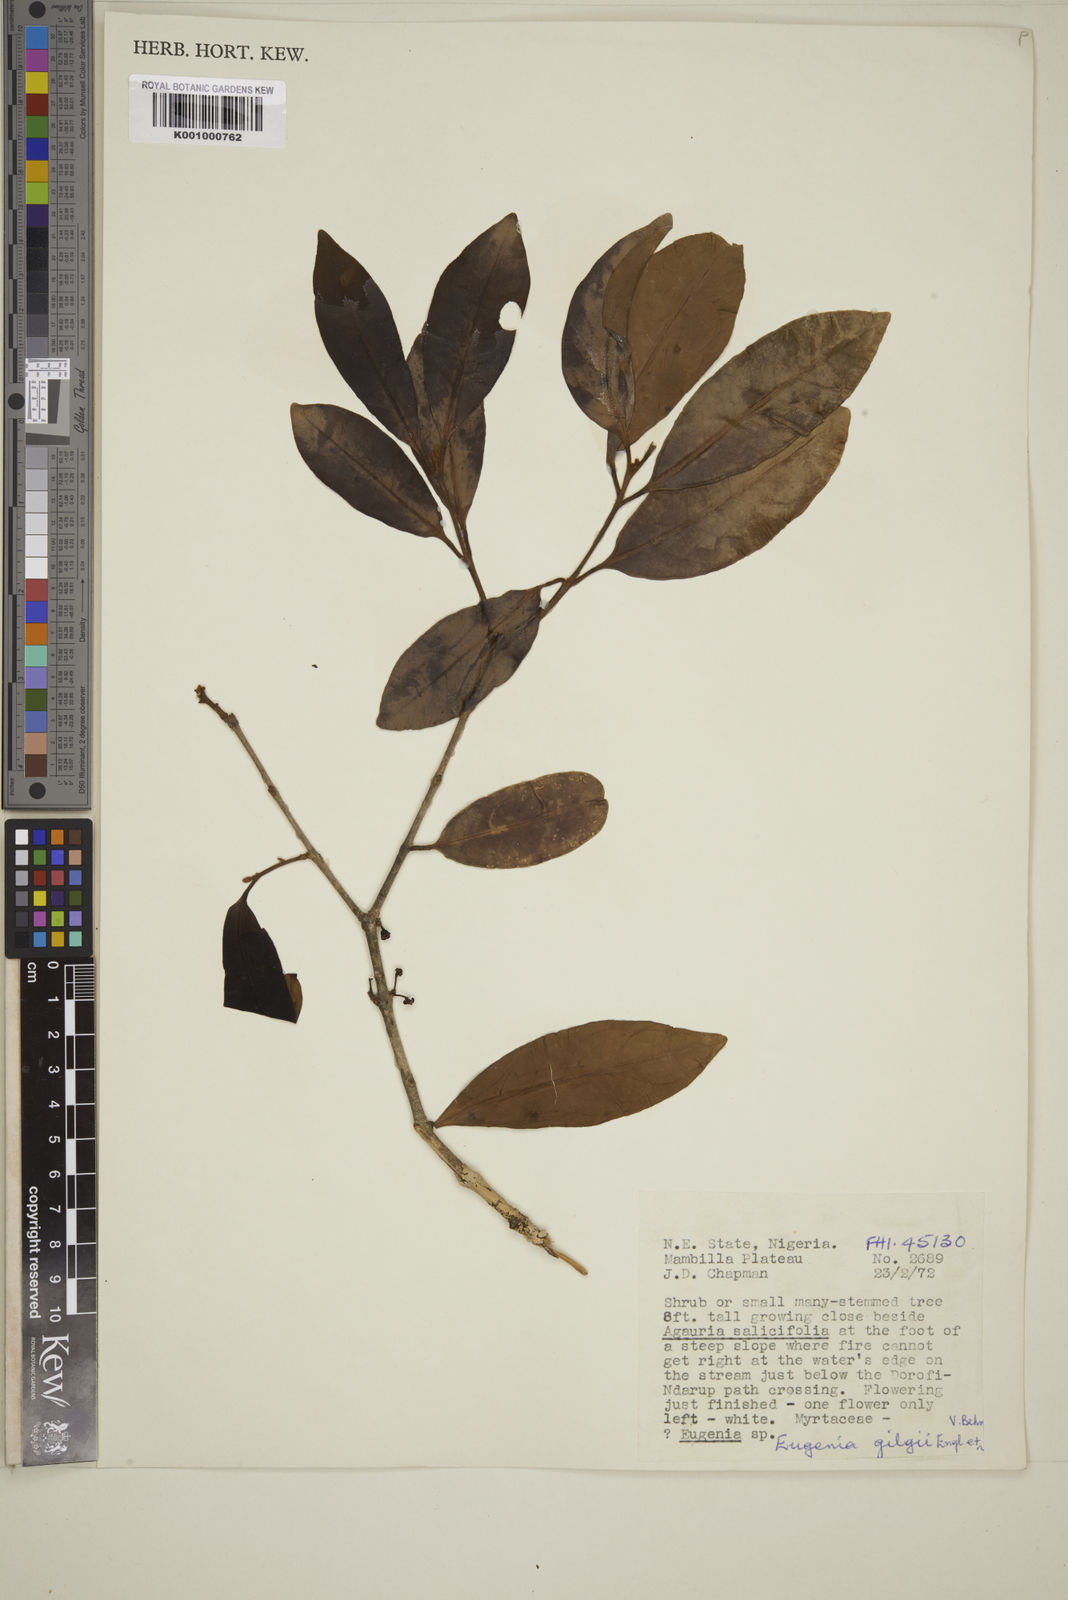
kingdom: Plantae
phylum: Tracheophyta
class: Magnoliopsida
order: Myrtales
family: Myrtaceae
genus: Eugenia
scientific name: Eugenia gilgii
